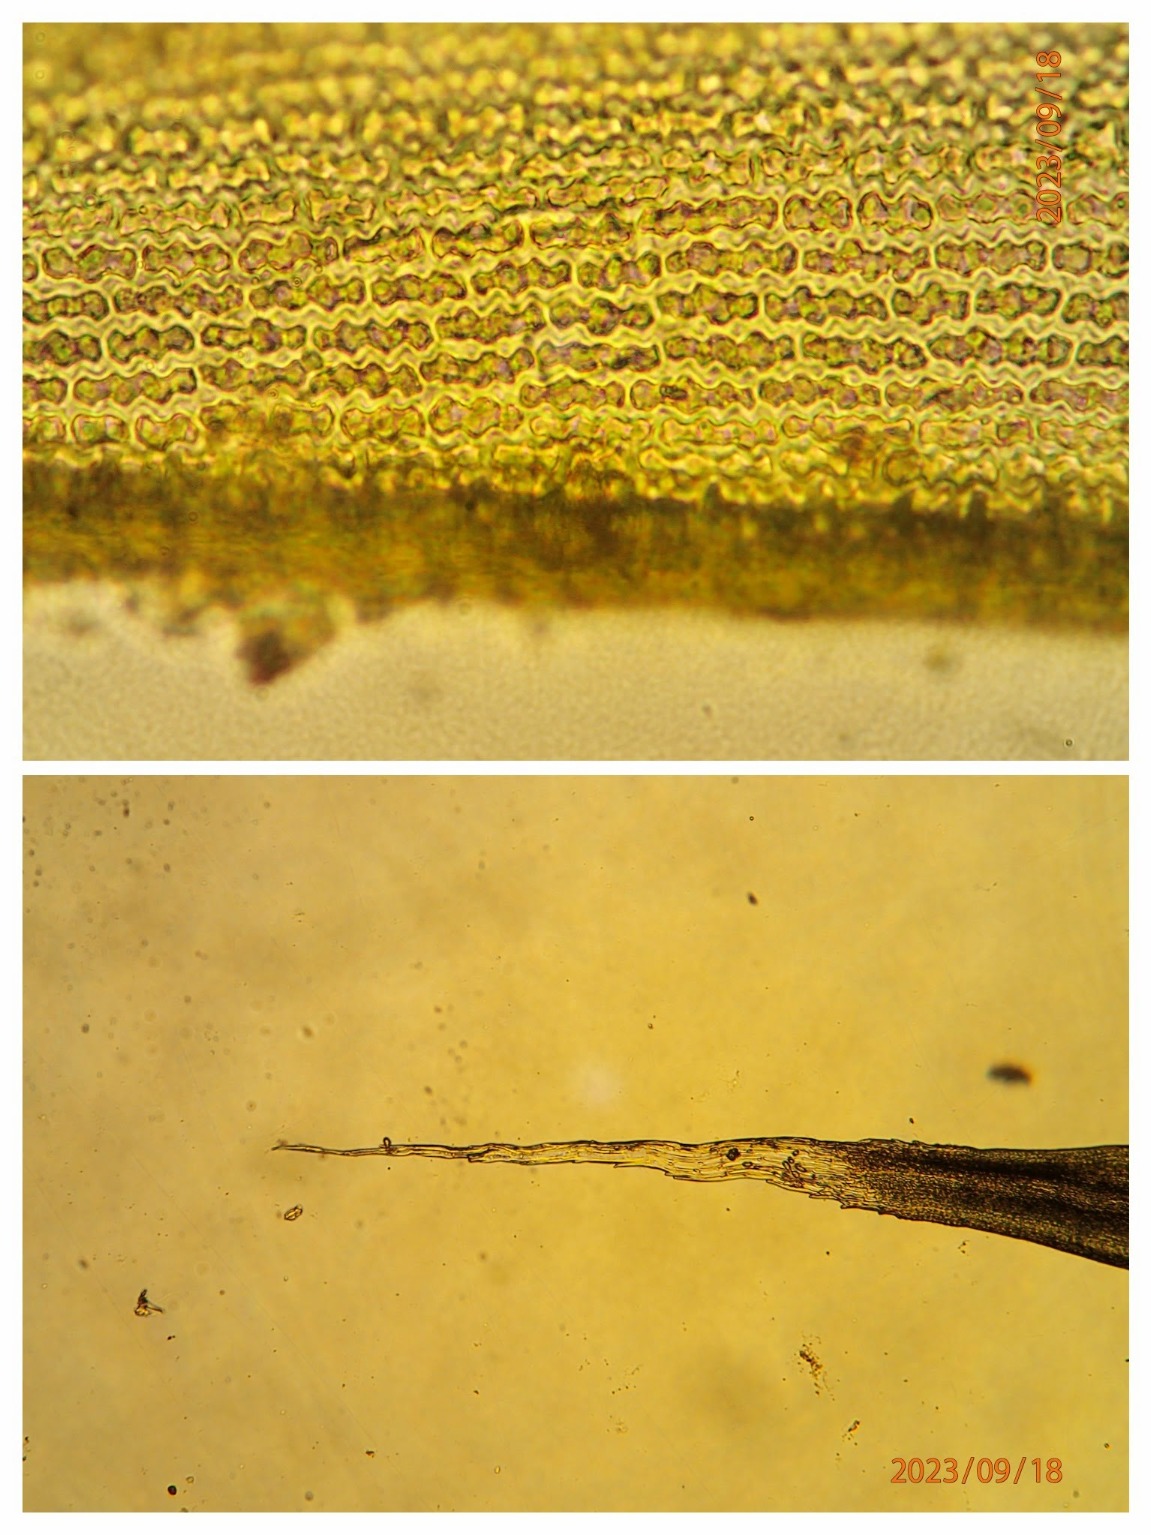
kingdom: Plantae
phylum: Bryophyta
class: Bryopsida
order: Grimmiales
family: Grimmiaceae
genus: Bucklandiella
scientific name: Bucklandiella heterosticha
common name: Sten-børstemos
